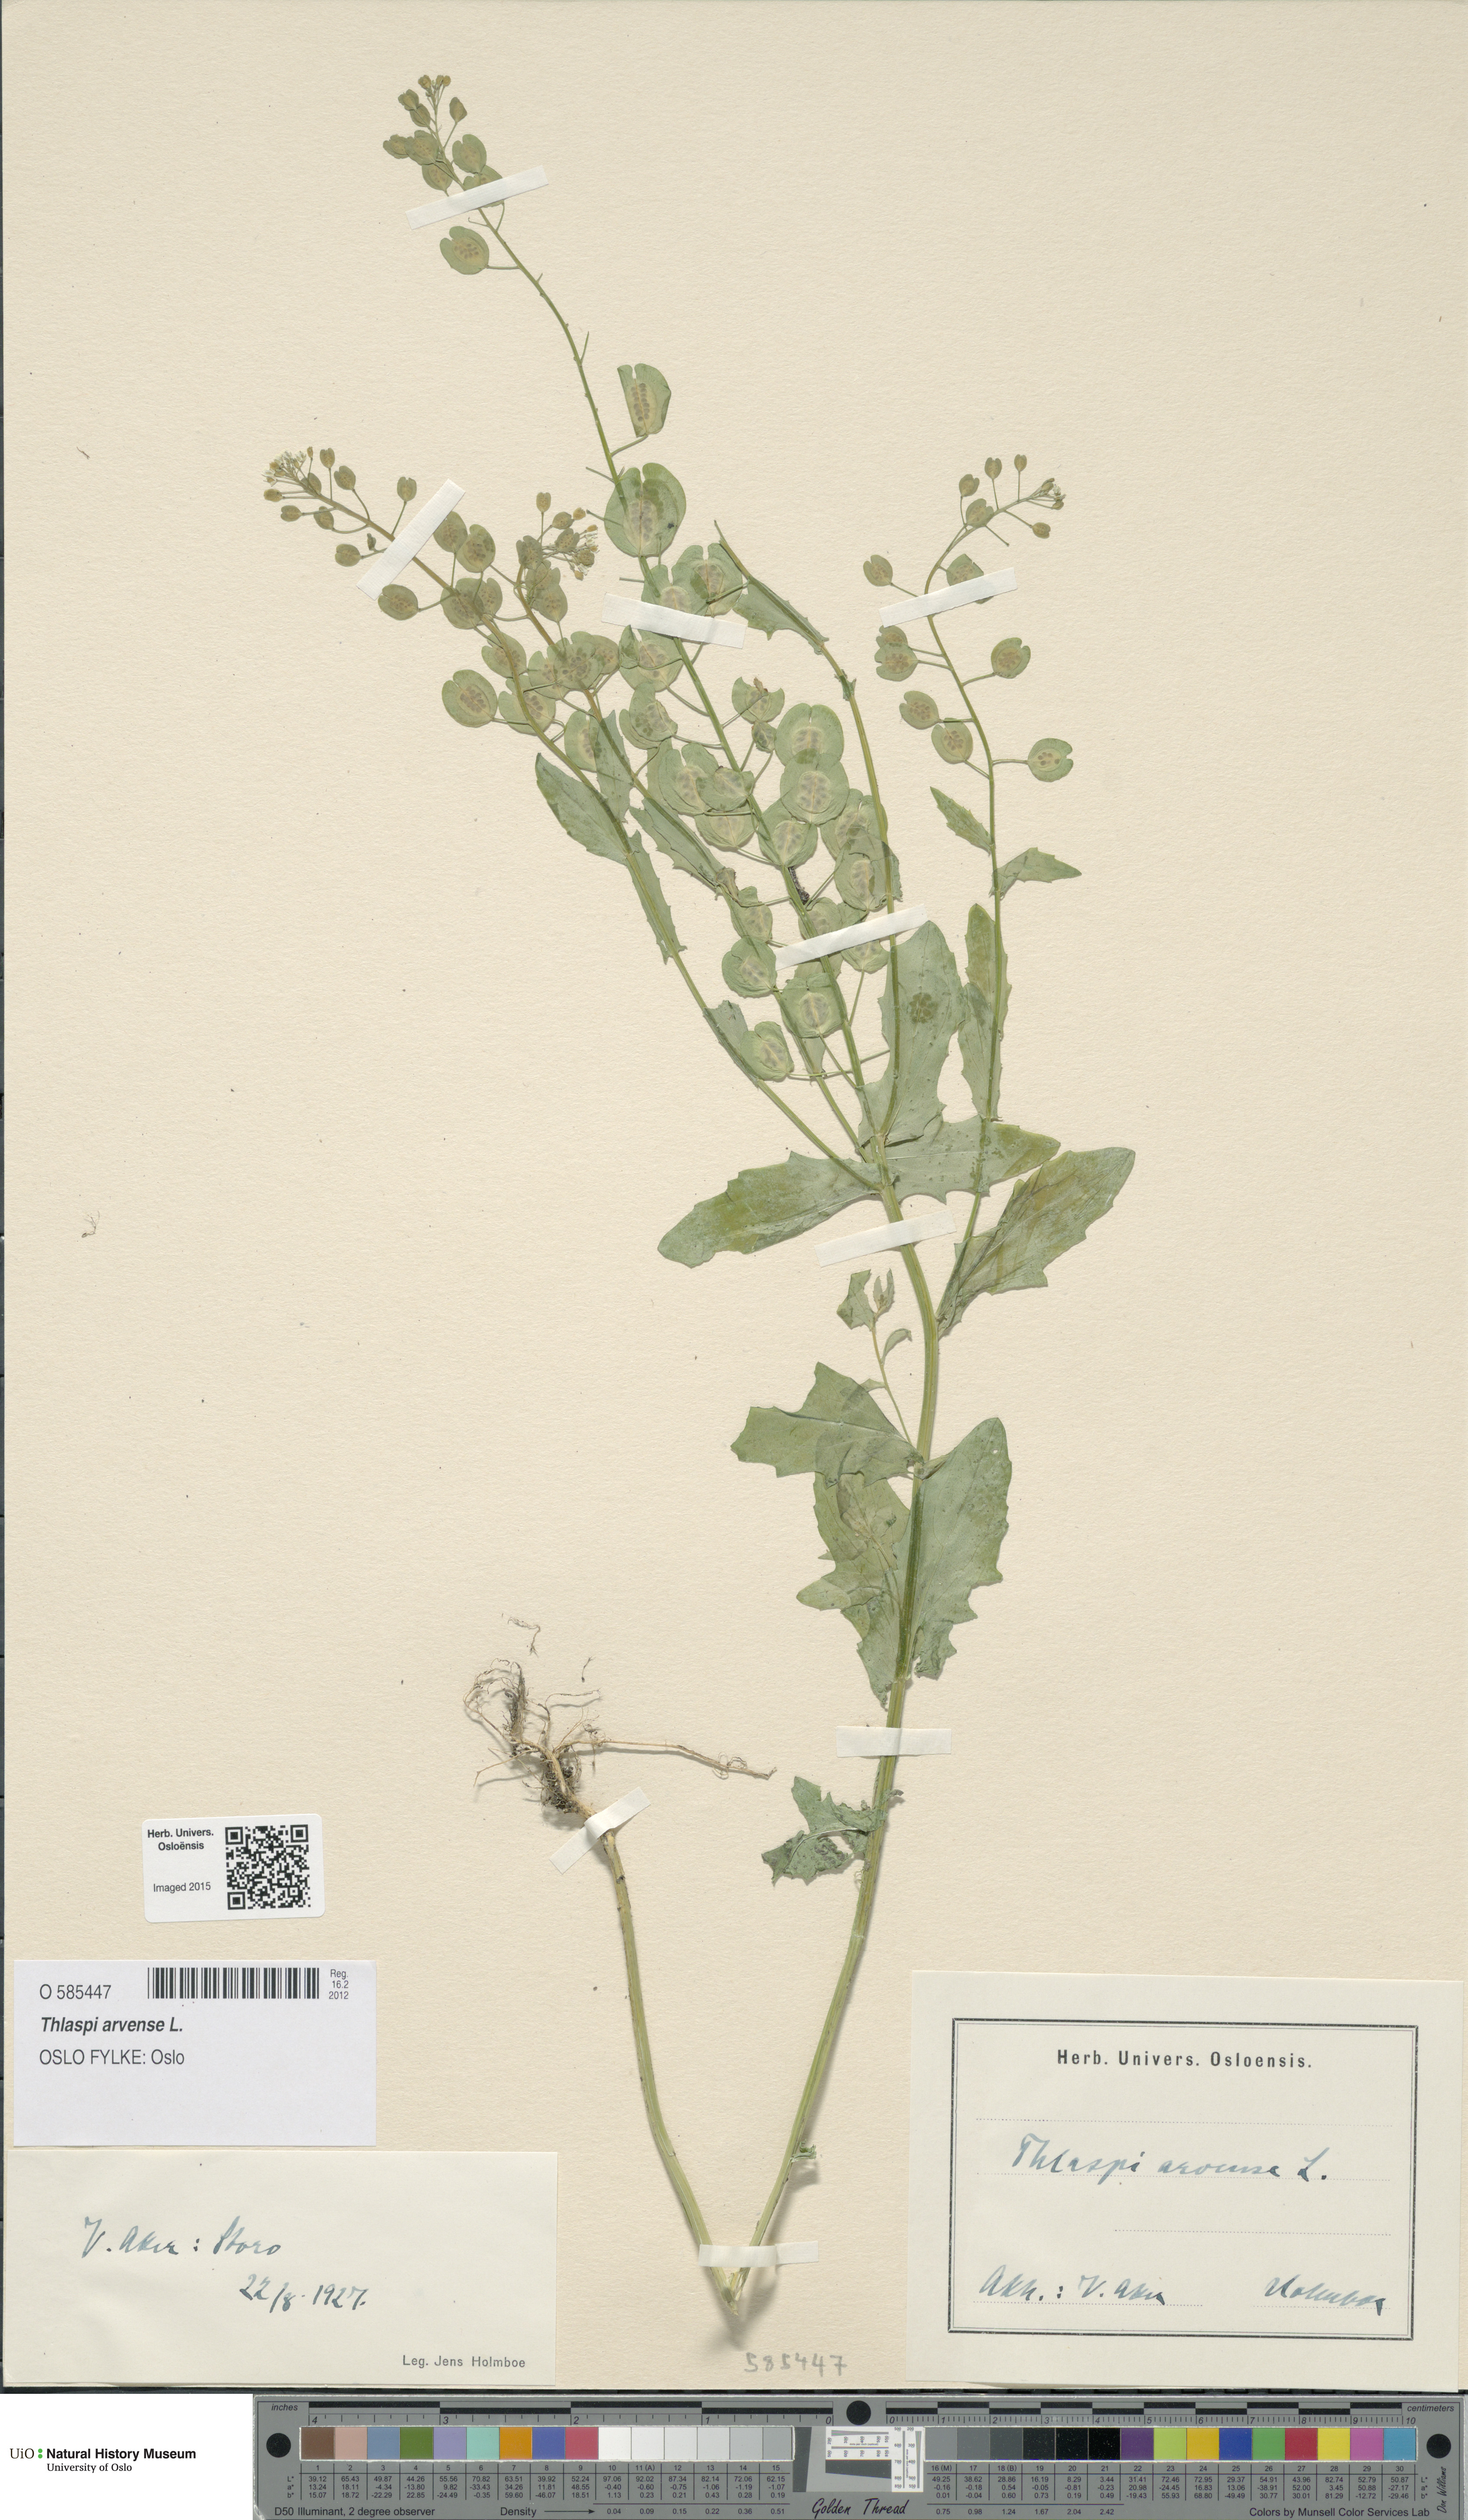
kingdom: Plantae
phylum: Tracheophyta
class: Magnoliopsida
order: Brassicales
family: Brassicaceae
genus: Thlaspi
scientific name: Thlaspi arvense
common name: Field pennycress
